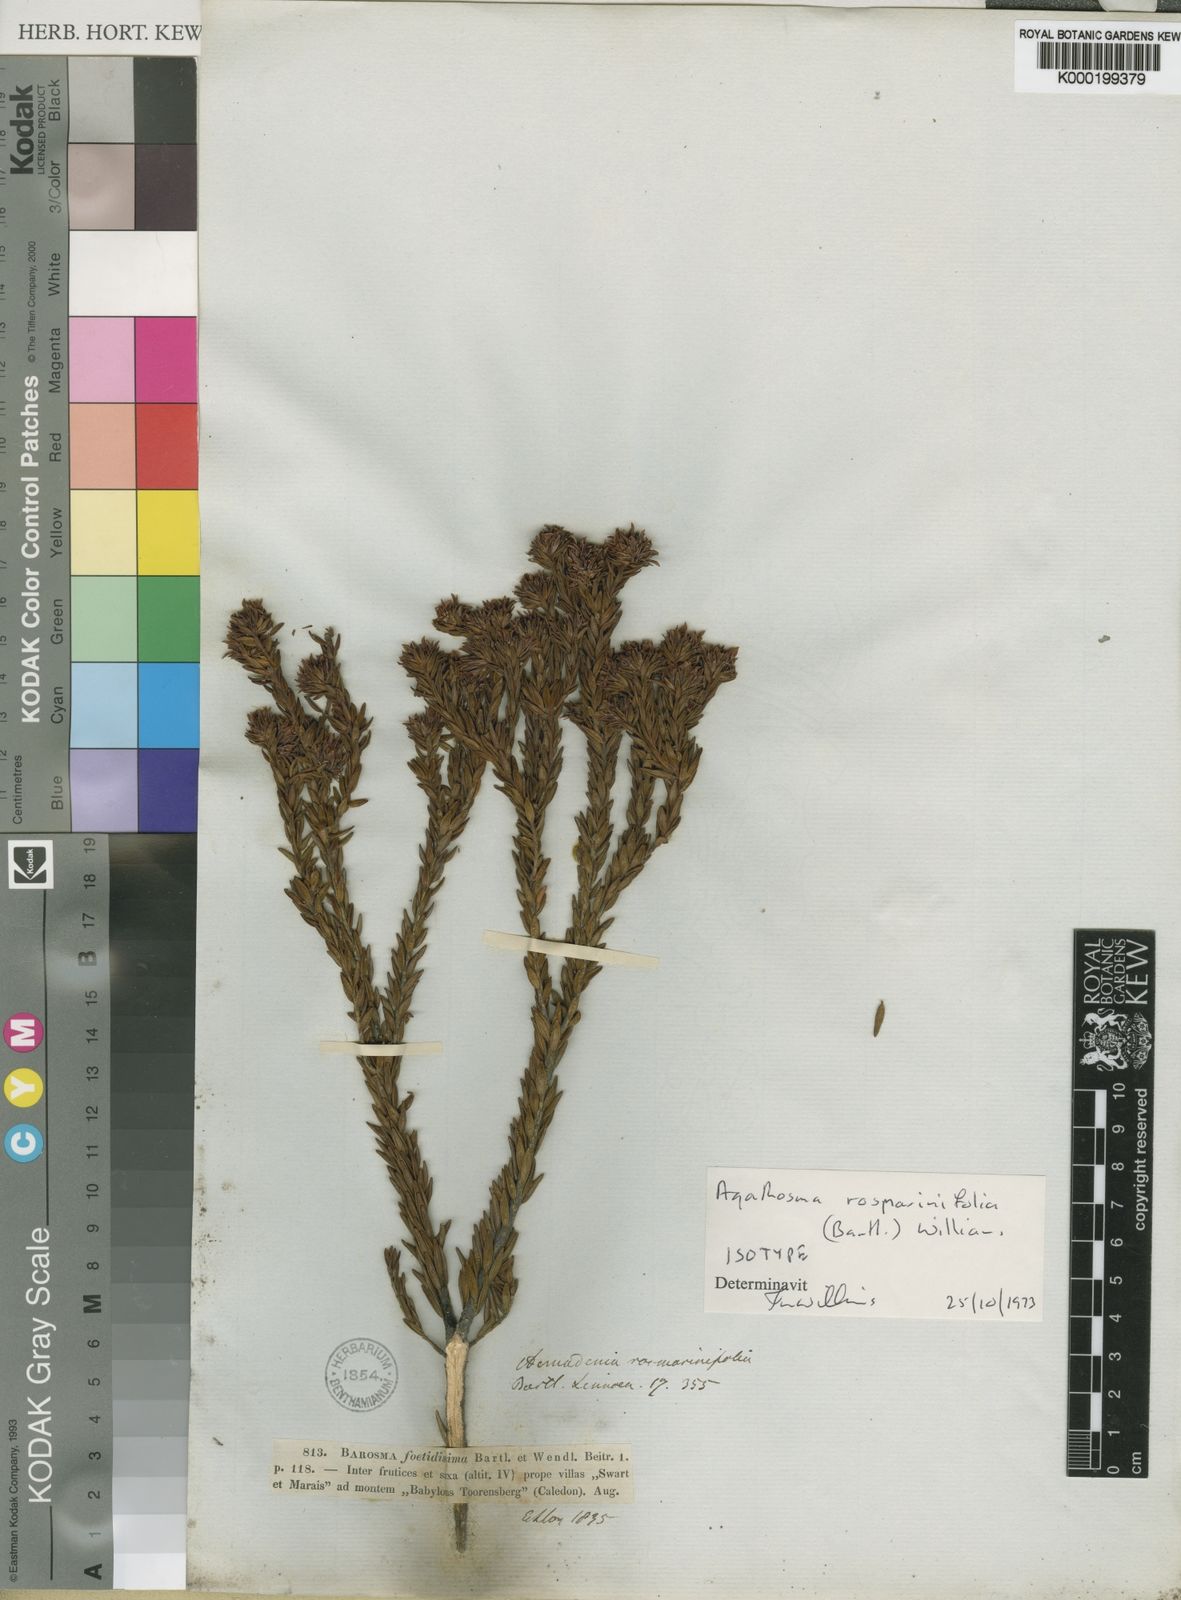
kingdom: Plantae
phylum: Tracheophyta
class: Magnoliopsida
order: Sapindales
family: Rutaceae
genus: Agathosma
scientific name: Agathosma rosmarinifolia
